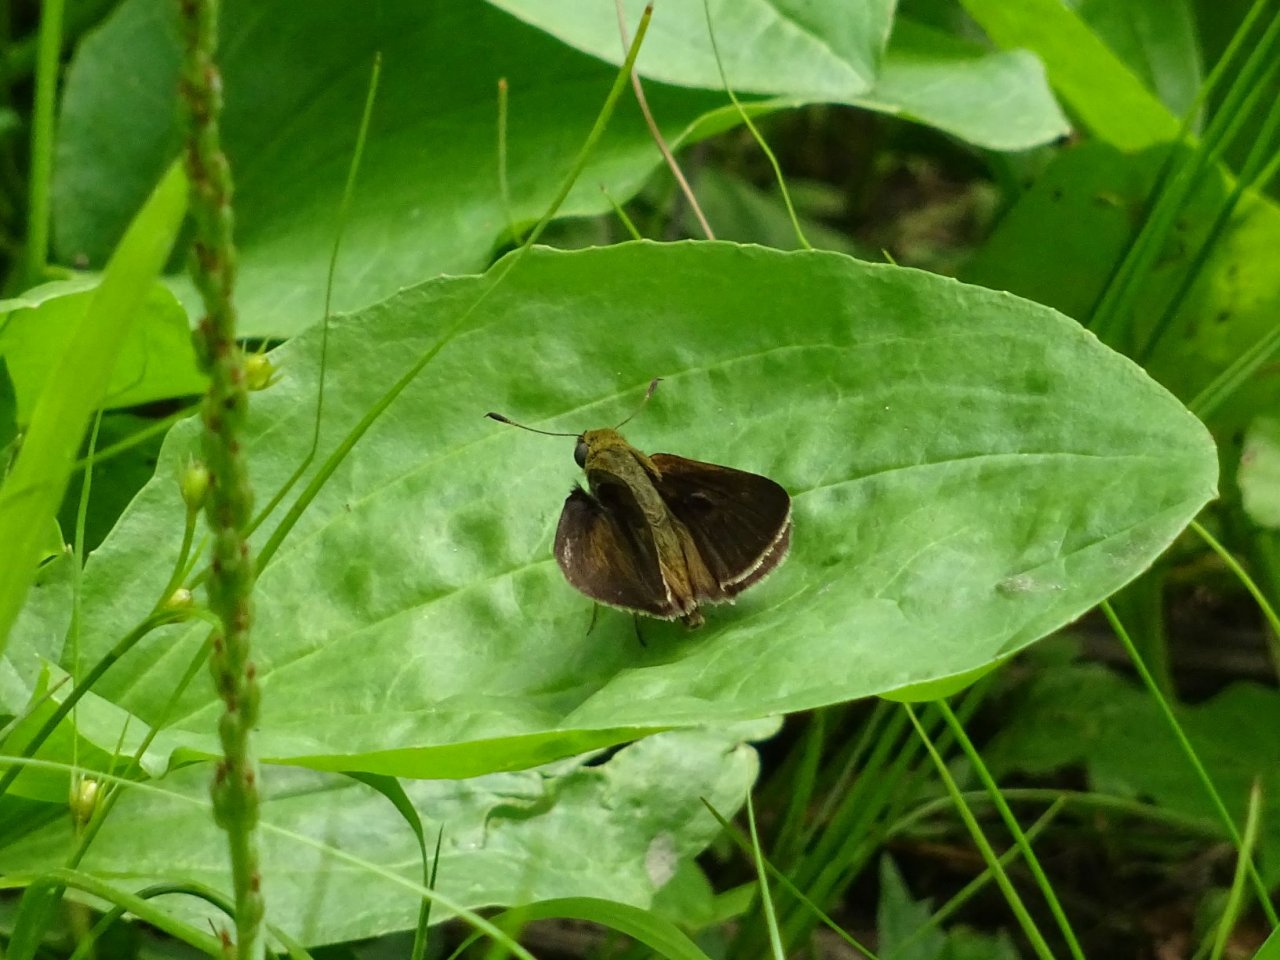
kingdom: Animalia
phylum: Arthropoda
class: Insecta
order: Lepidoptera
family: Hesperiidae
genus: Euphyes
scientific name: Euphyes vestris
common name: Dun Skipper
